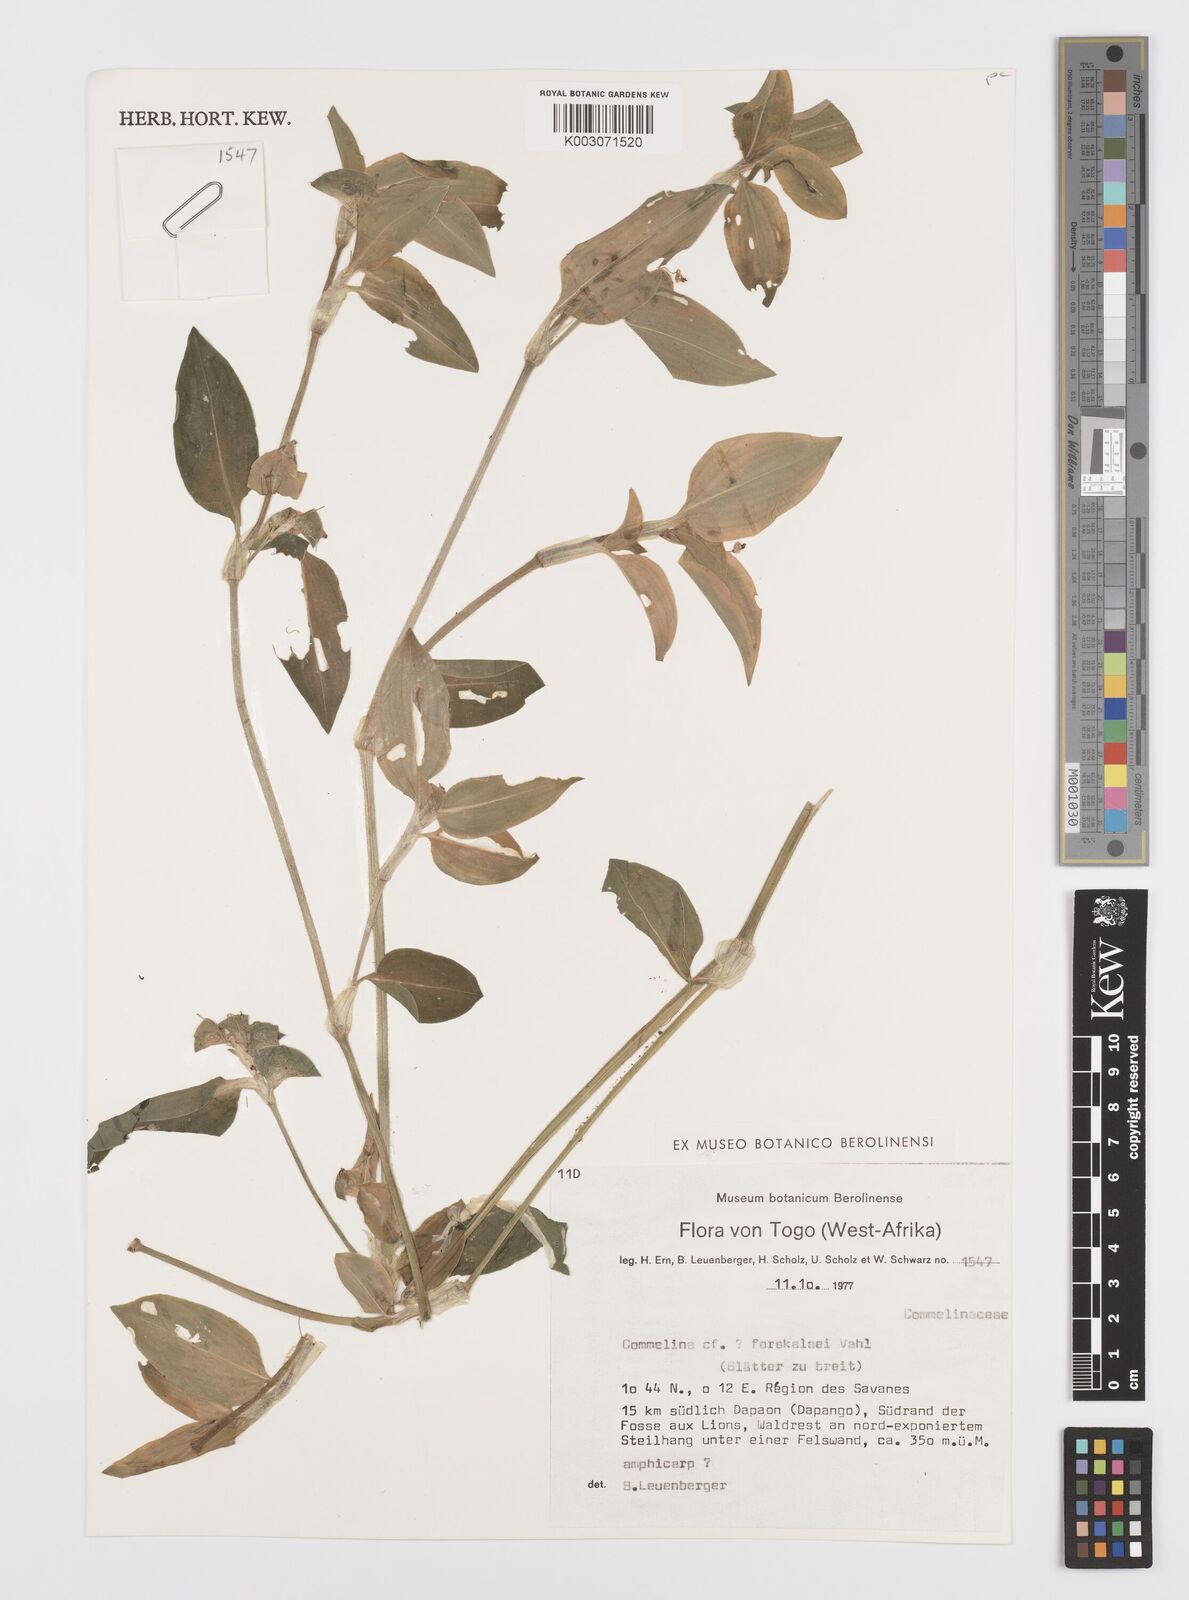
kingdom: Plantae
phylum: Tracheophyta
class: Liliopsida
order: Commelinales
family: Commelinaceae
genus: Commelina
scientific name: Commelina forskaolii
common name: Rat's ear
